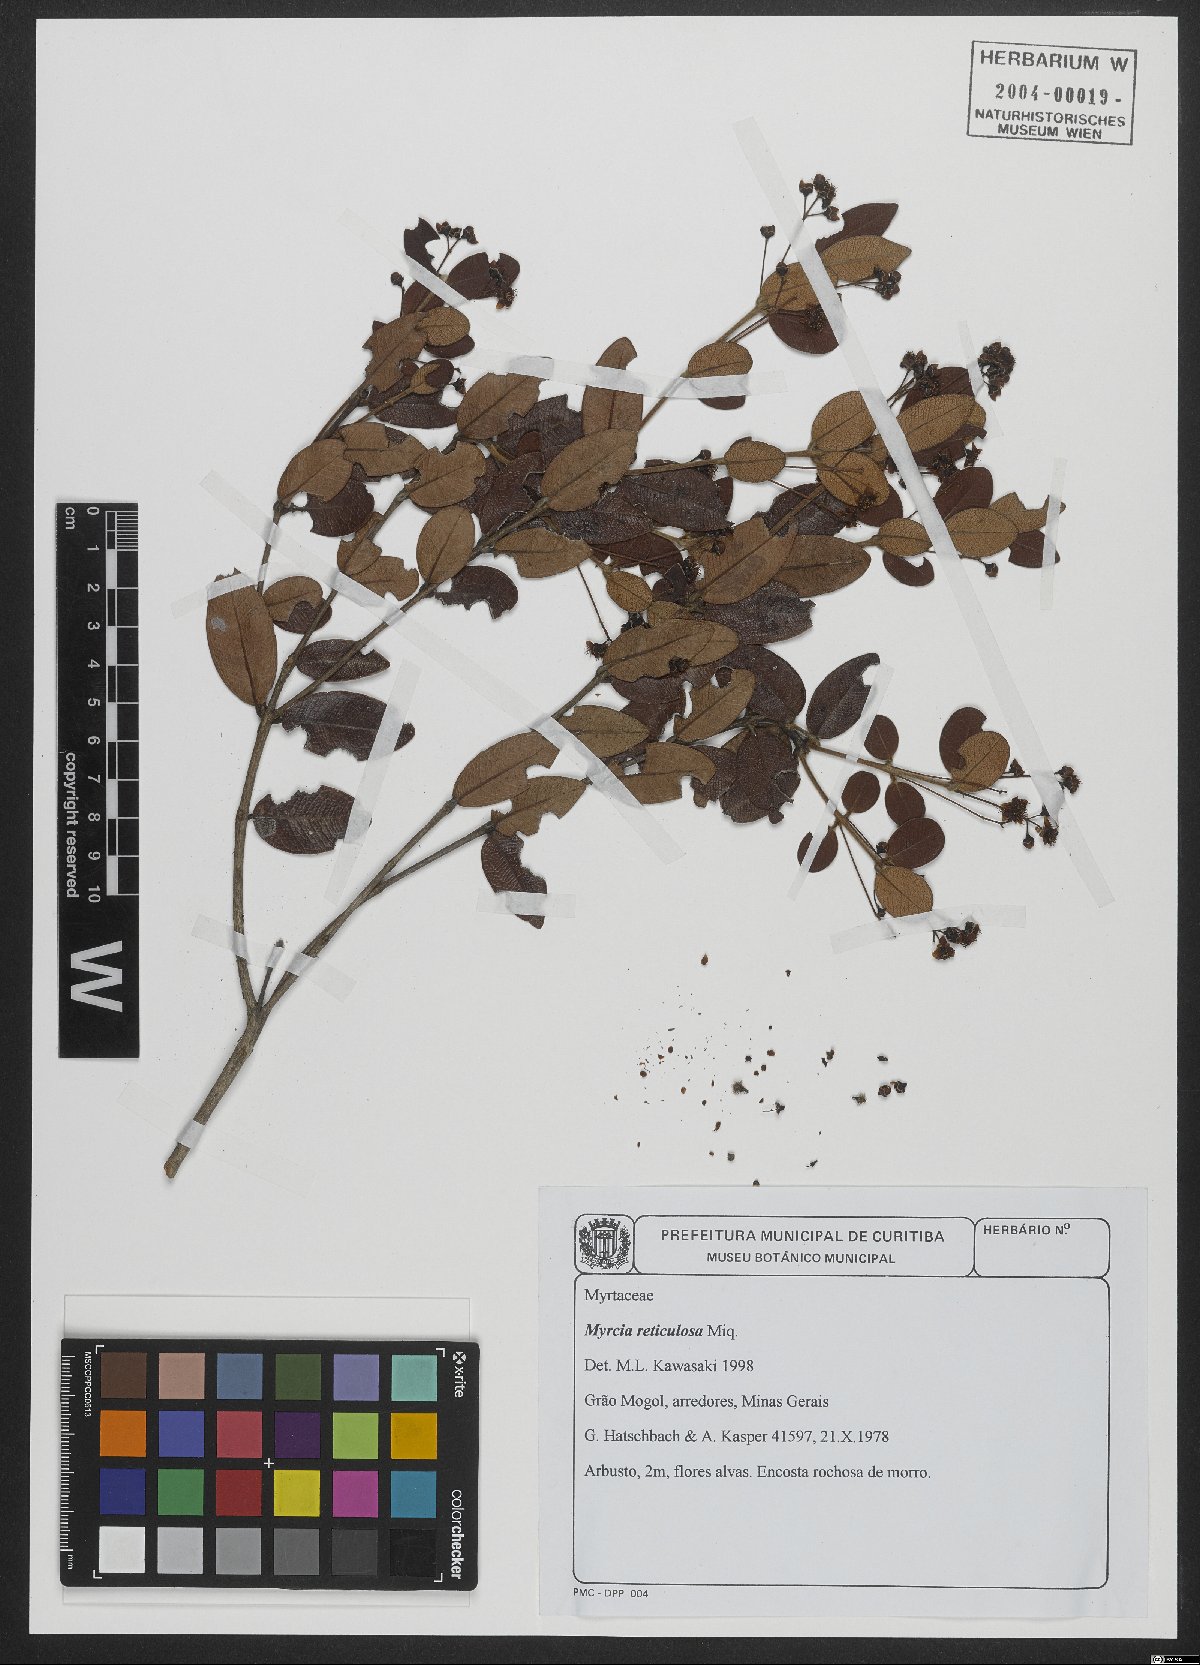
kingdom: Plantae
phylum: Tracheophyta
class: Magnoliopsida
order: Myrtales
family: Myrtaceae
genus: Myrcia
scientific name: Myrcia reticulosa
